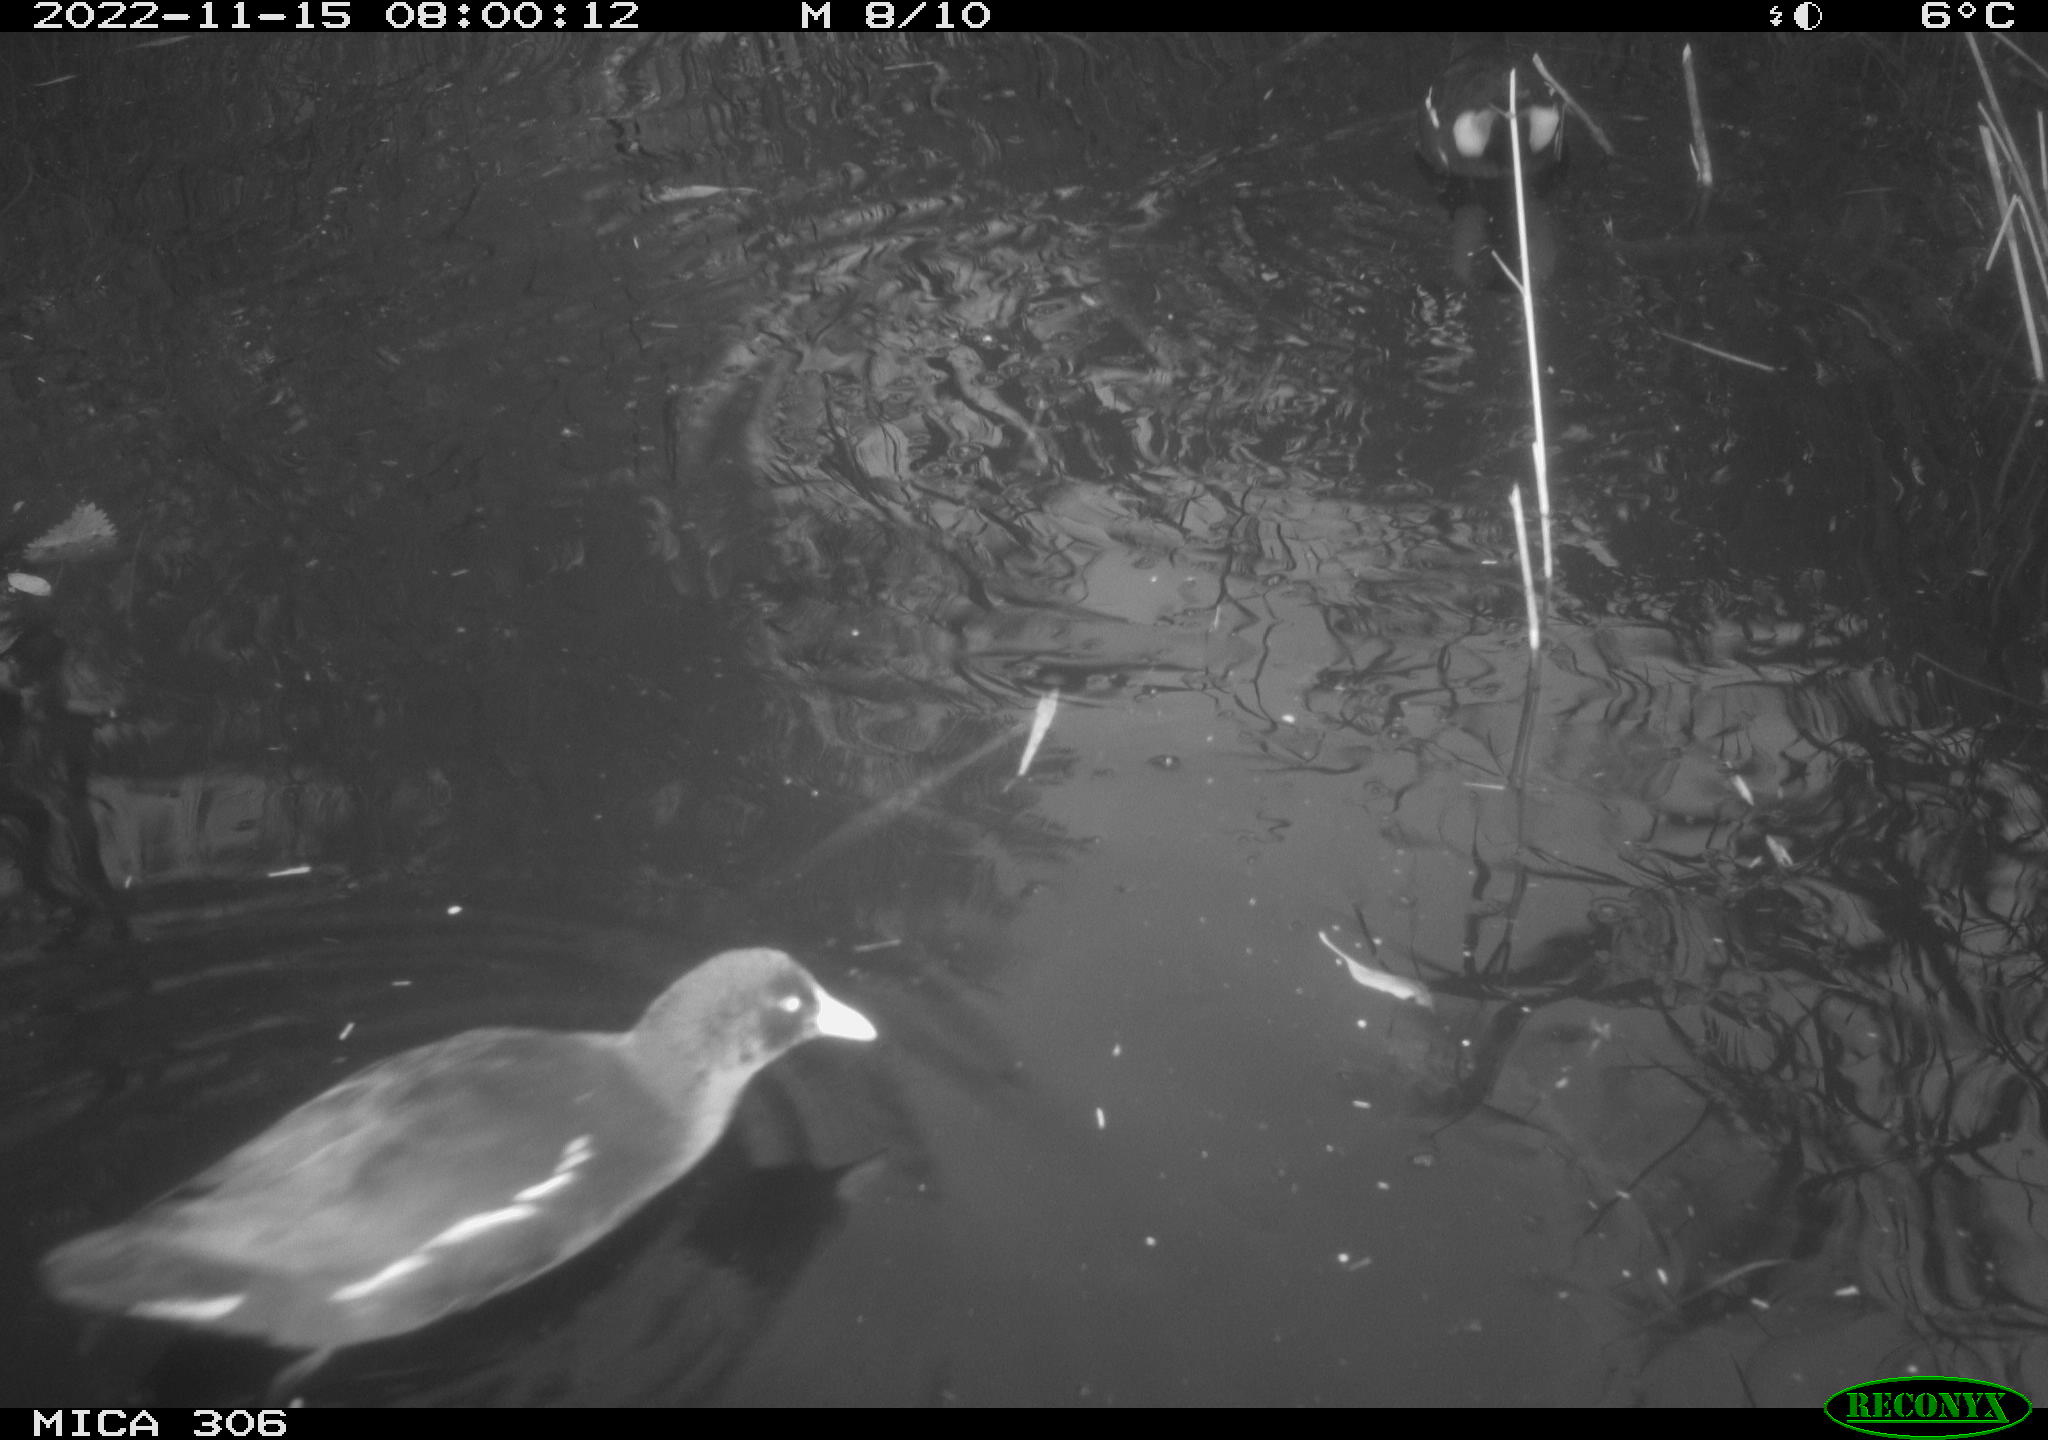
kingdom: Animalia
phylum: Chordata
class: Aves
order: Gruiformes
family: Rallidae
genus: Gallinula
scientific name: Gallinula chloropus
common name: Common moorhen
